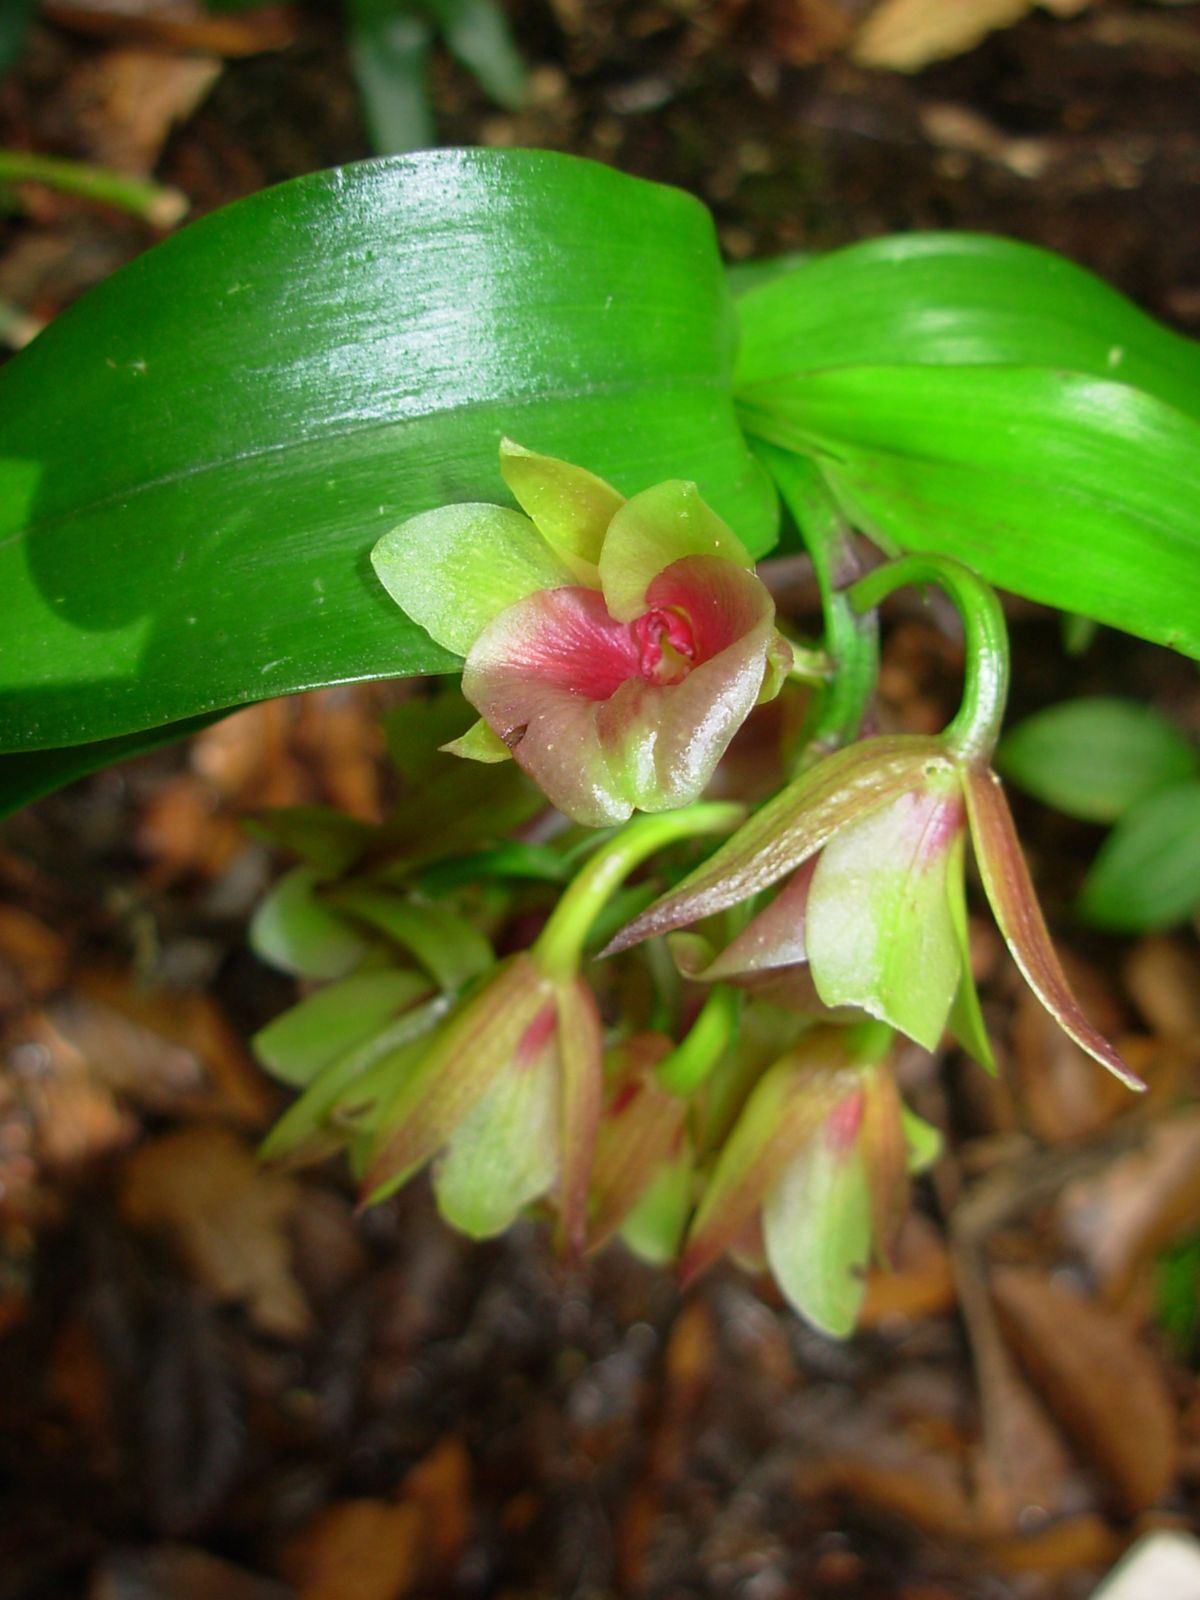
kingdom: Plantae
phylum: Tracheophyta
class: Liliopsida
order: Asparagales
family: Orchidaceae
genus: Epidendrum
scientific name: Epidendrum eximium
